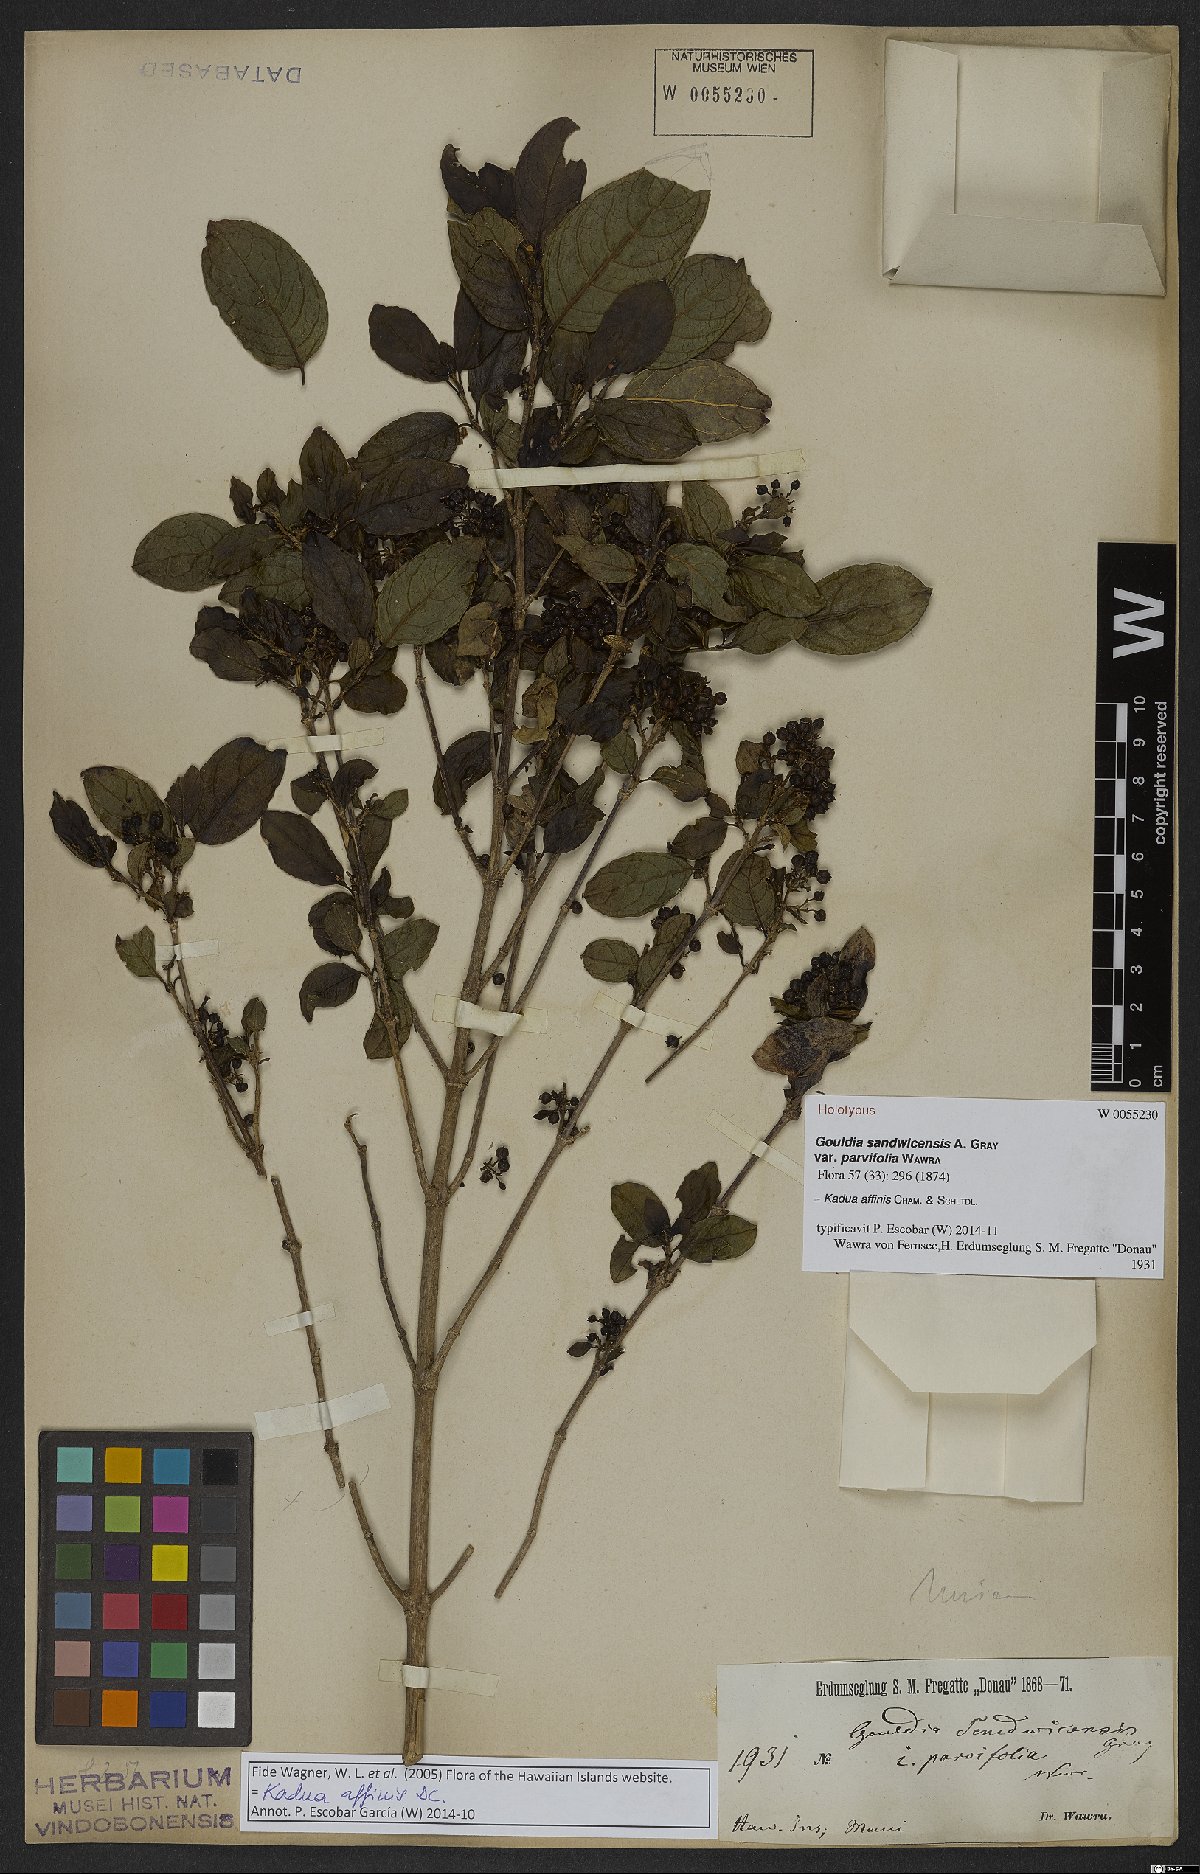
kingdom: Plantae
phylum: Tracheophyta
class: Magnoliopsida
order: Gentianales
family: Rubiaceae
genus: Kadua
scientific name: Kadua affinis
